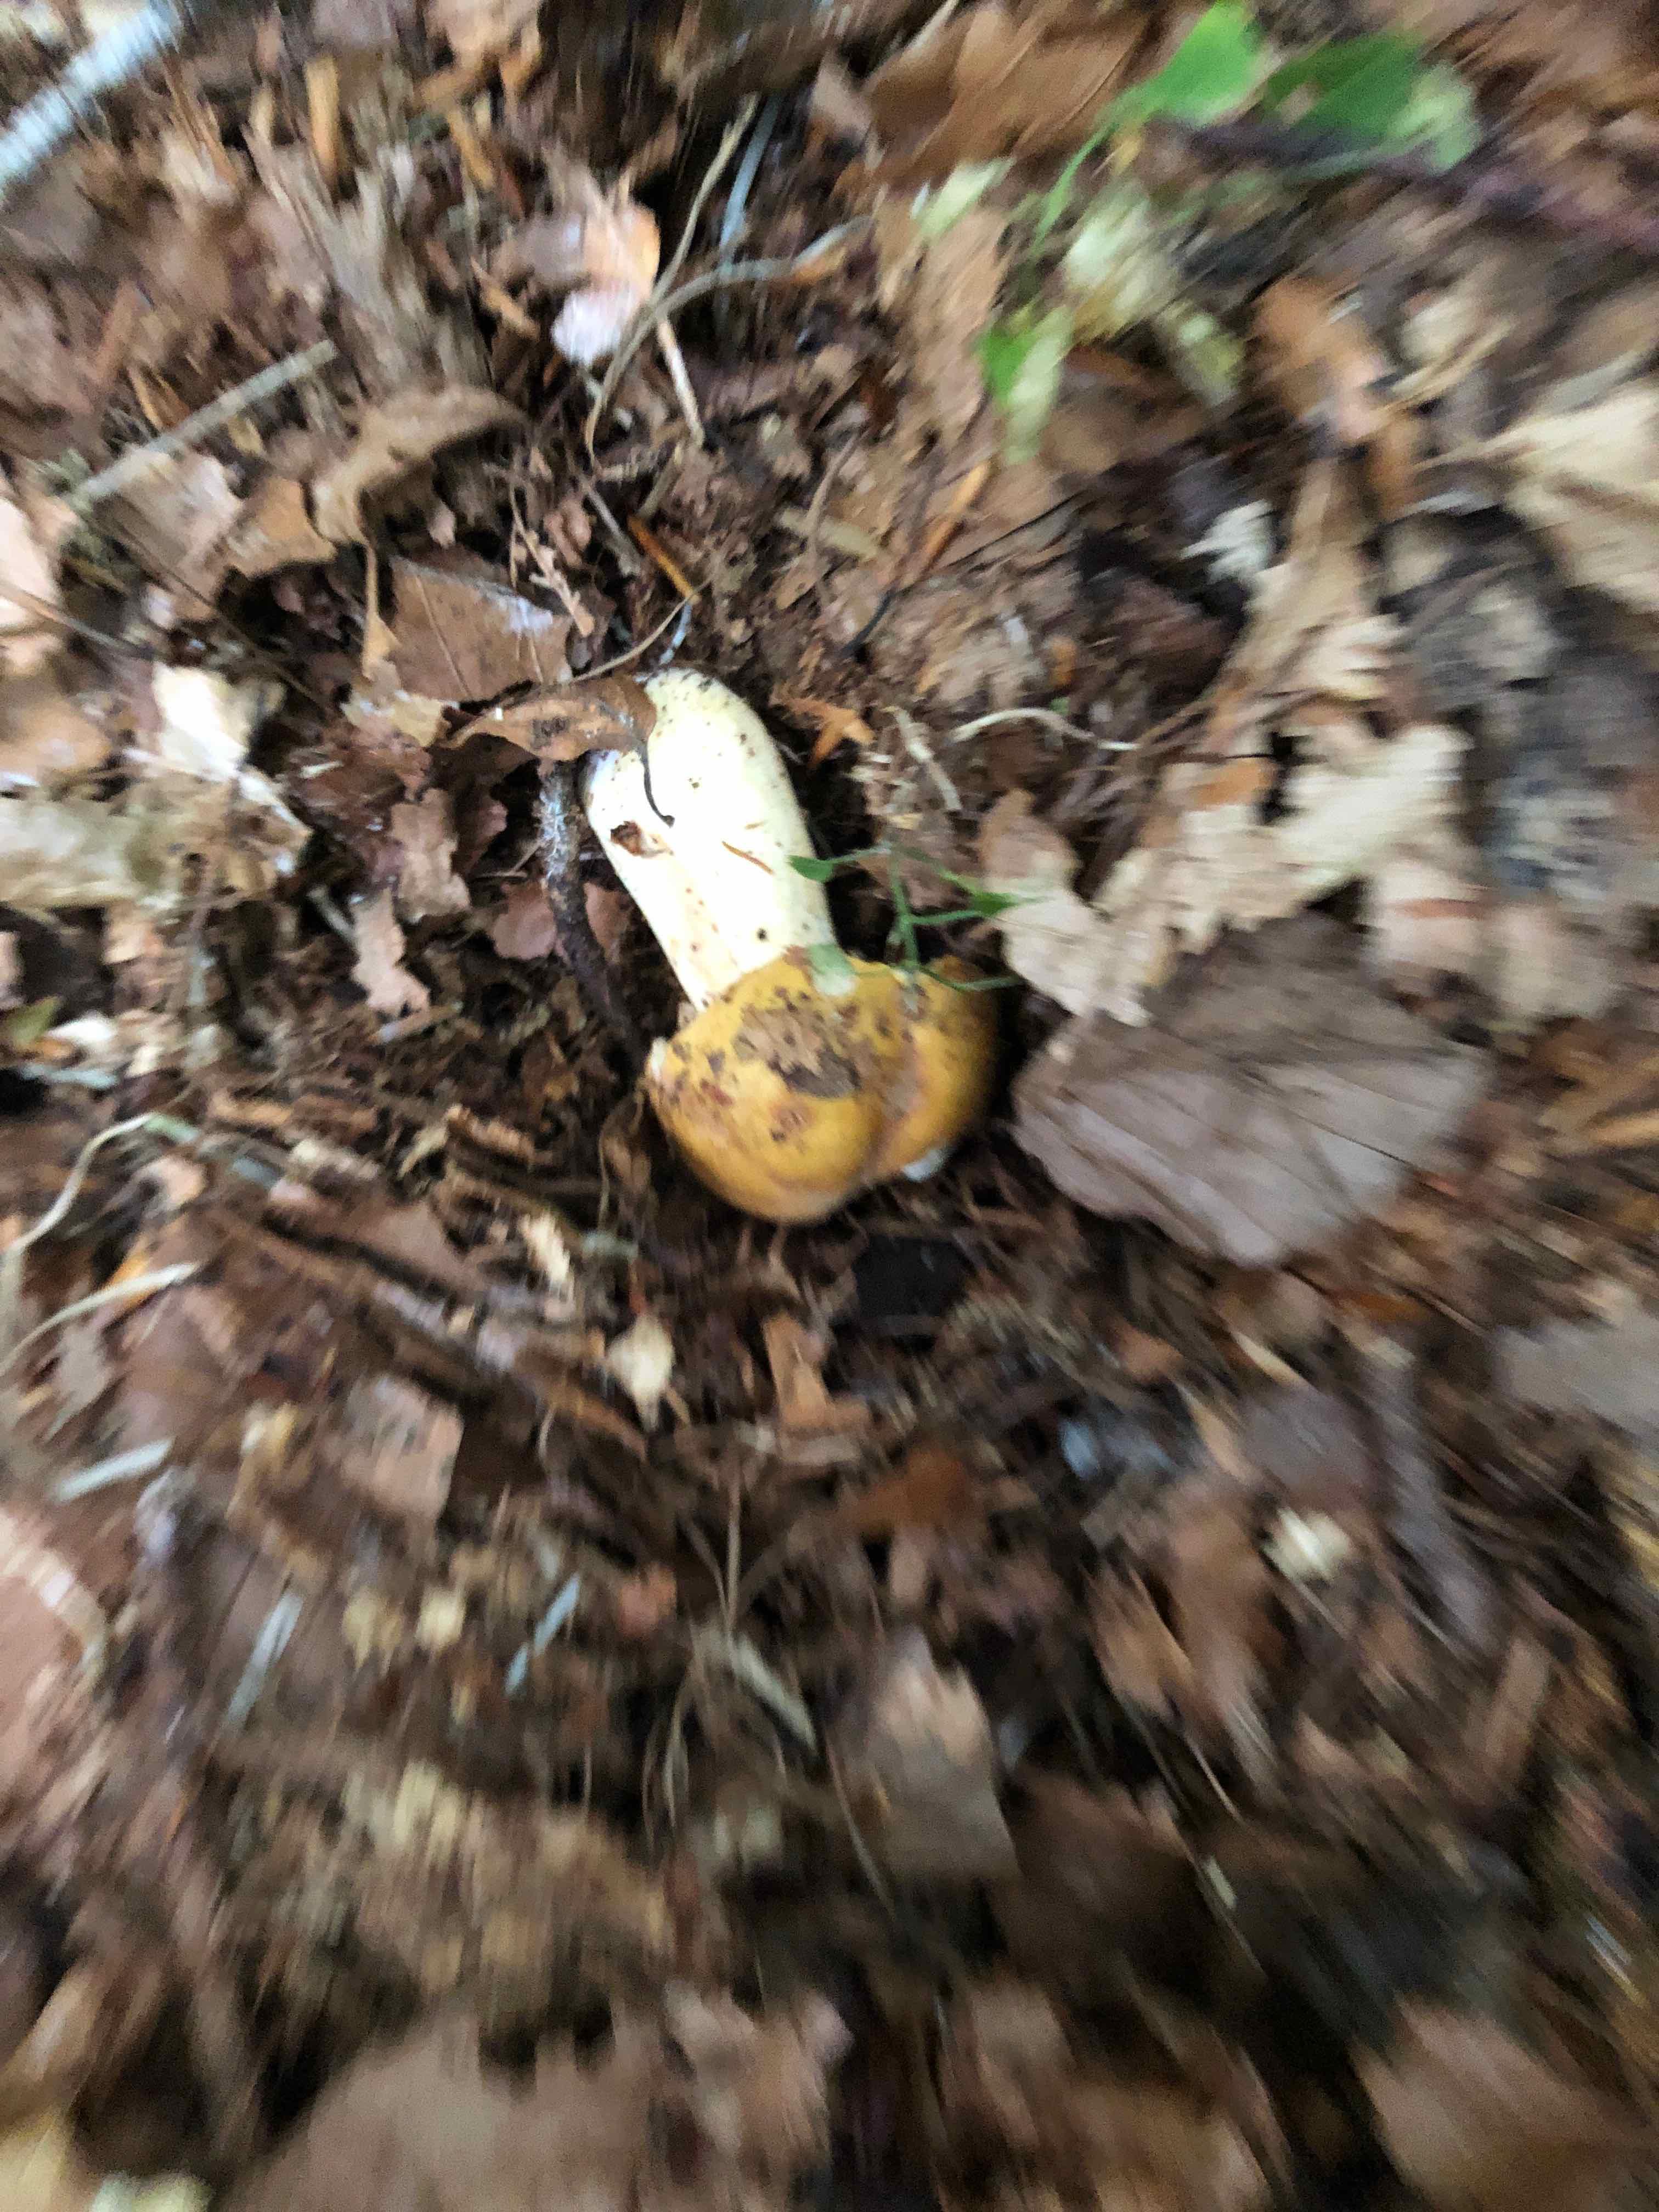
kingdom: Fungi
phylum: Basidiomycota
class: Agaricomycetes
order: Russulales
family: Russulaceae
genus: Russula
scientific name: Russula
